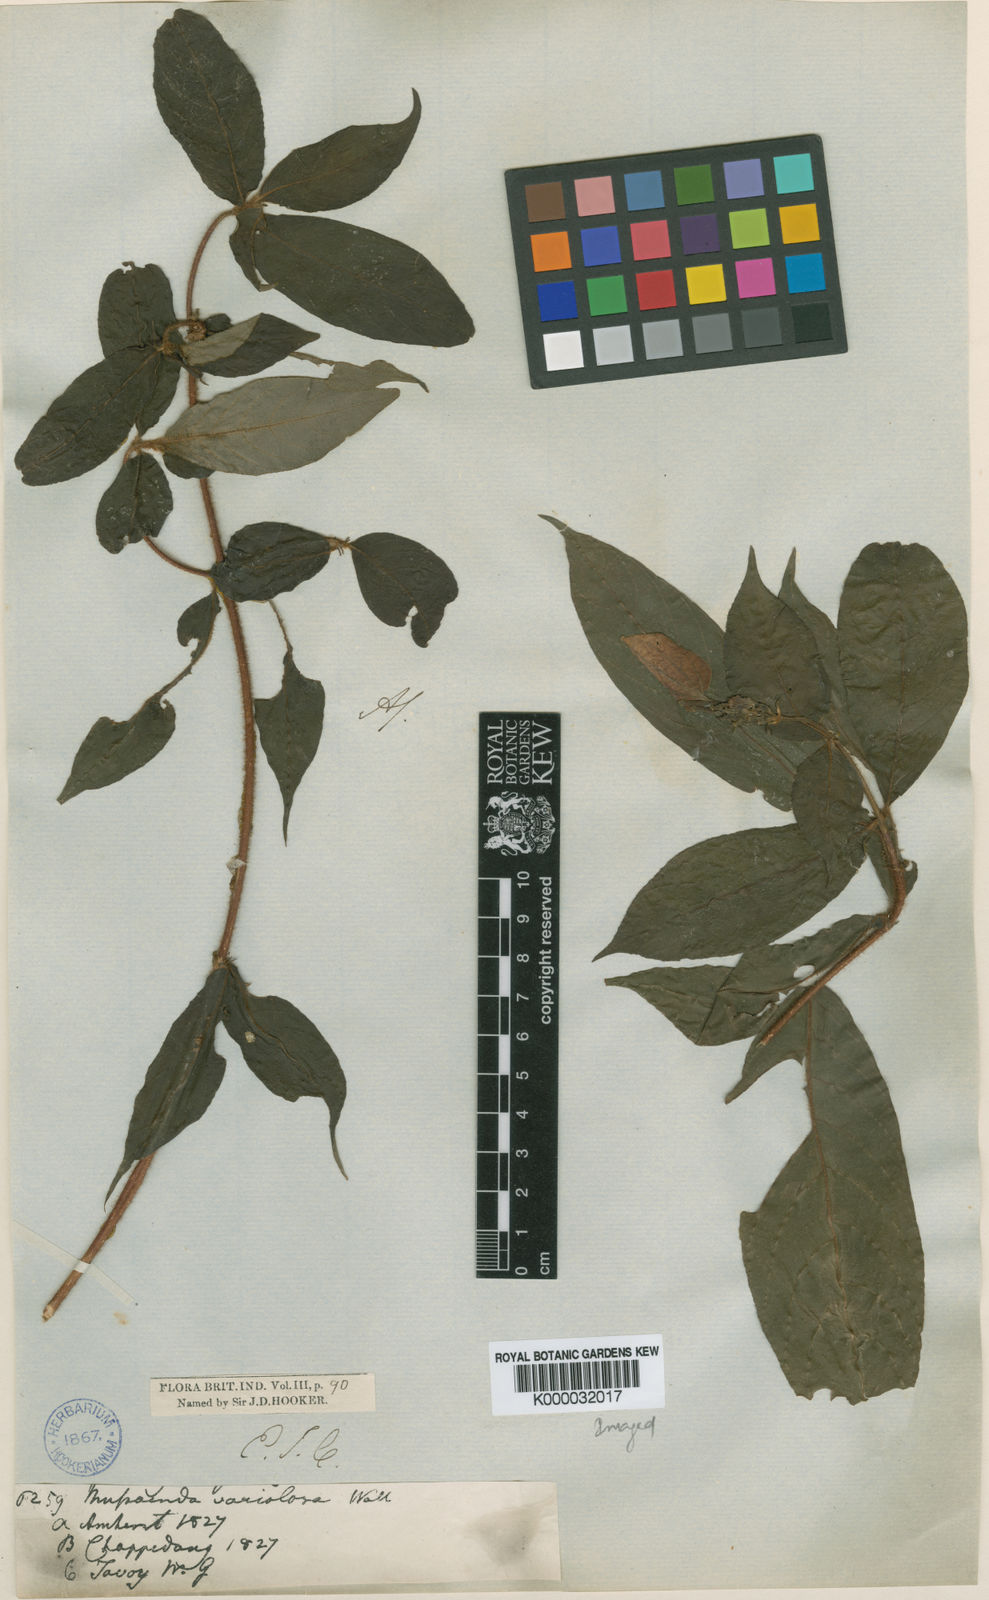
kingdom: Plantae
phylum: Tracheophyta
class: Magnoliopsida
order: Gentianales
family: Rubiaceae
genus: Mussaenda
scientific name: Mussaenda
